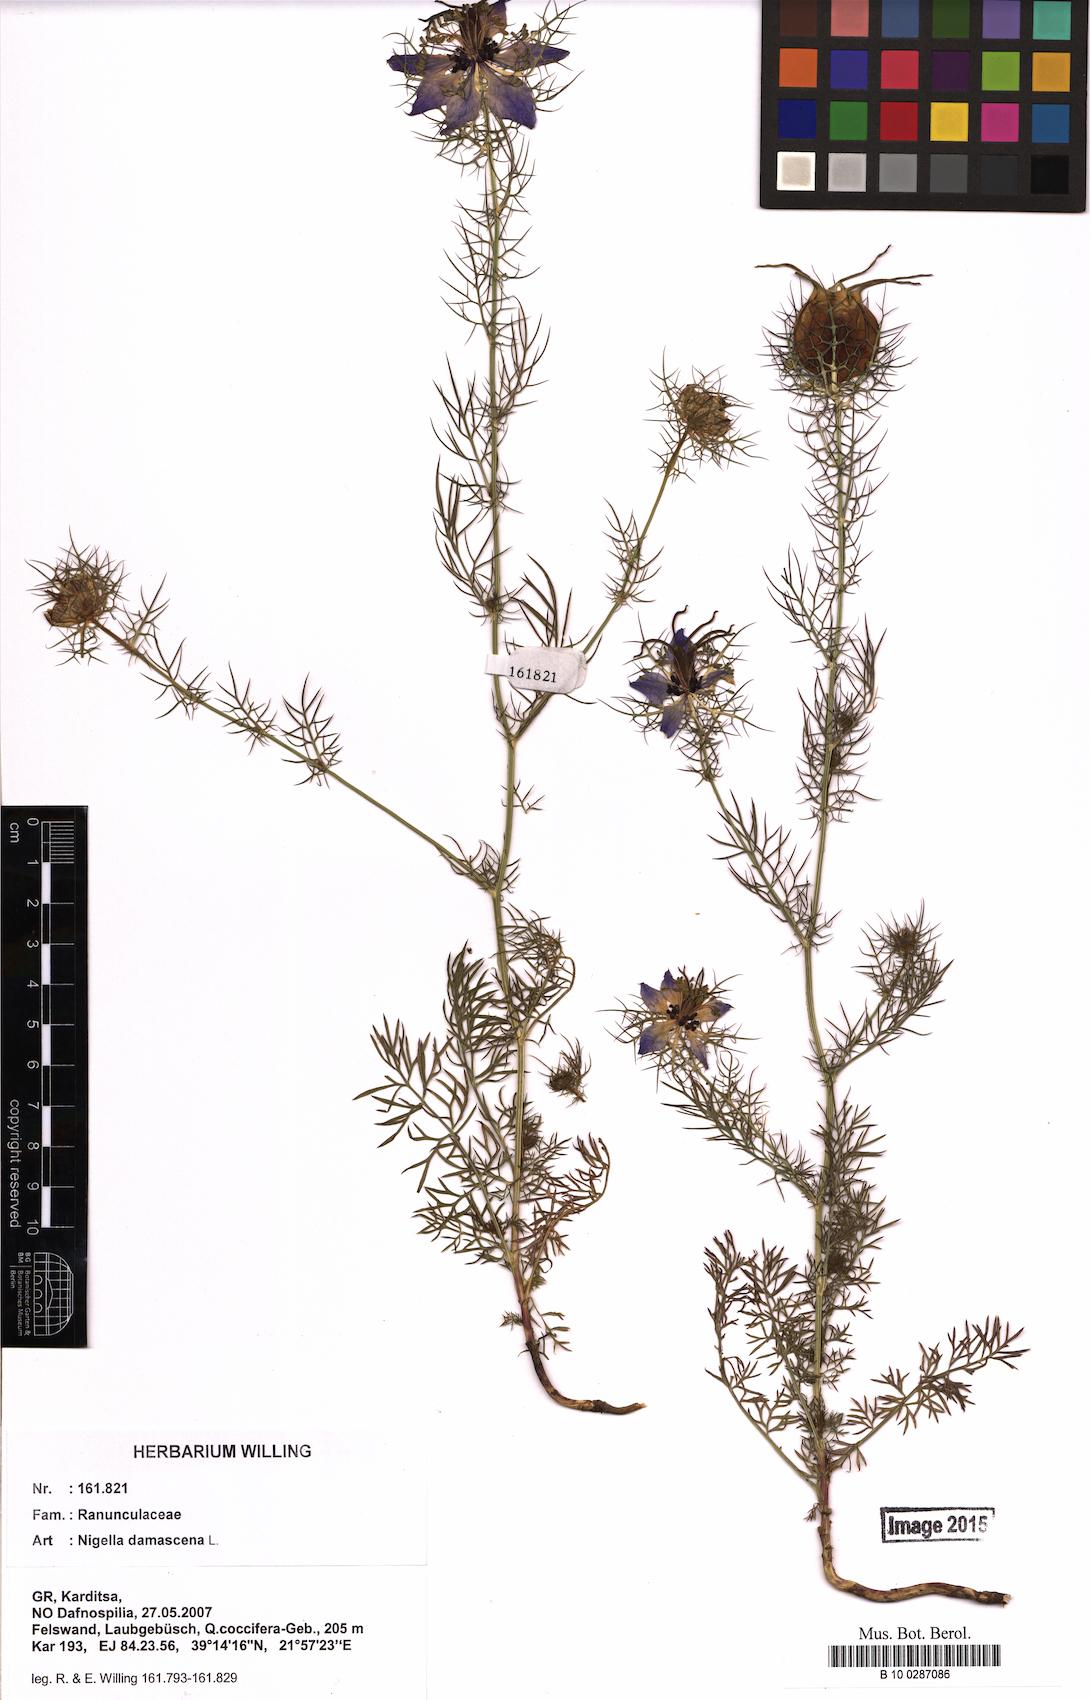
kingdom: Plantae
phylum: Tracheophyta
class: Magnoliopsida
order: Ranunculales
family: Ranunculaceae
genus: Nigella
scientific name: Nigella damascena
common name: Love-in-a-mist
